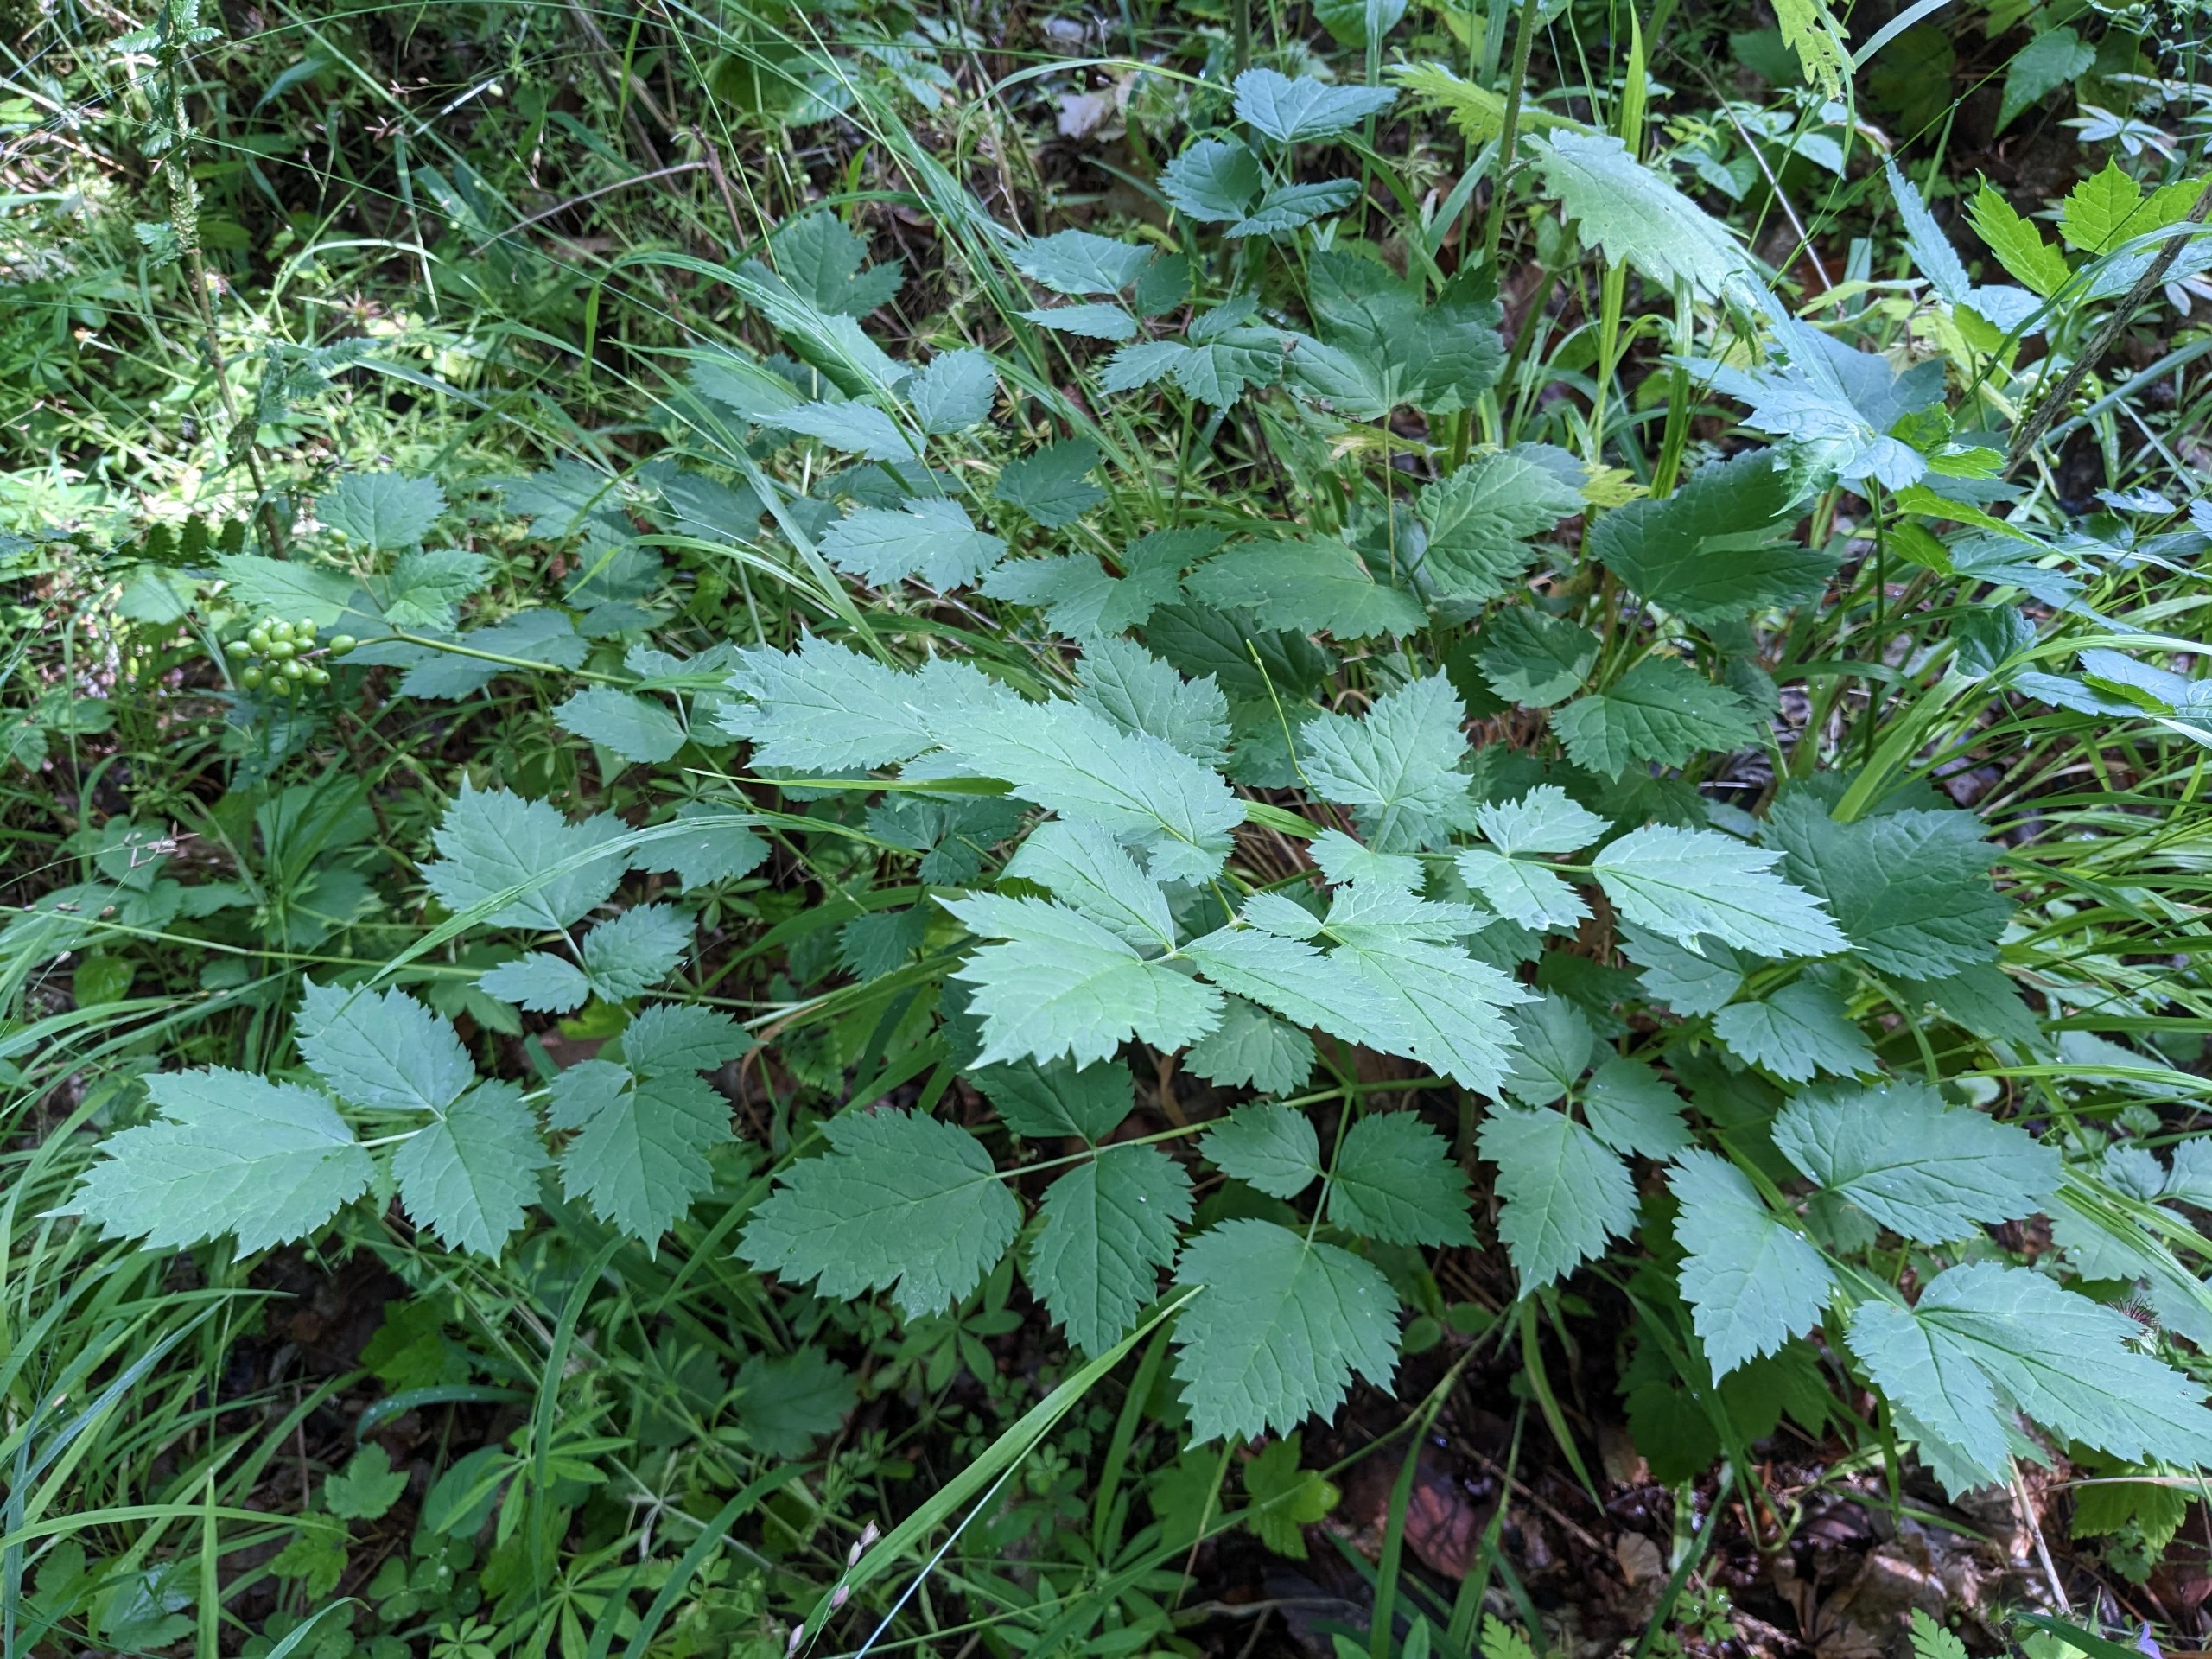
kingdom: Plantae
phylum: Tracheophyta
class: Magnoliopsida
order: Ranunculales
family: Ranunculaceae
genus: Actaea
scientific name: Actaea spicata
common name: Druemunke
